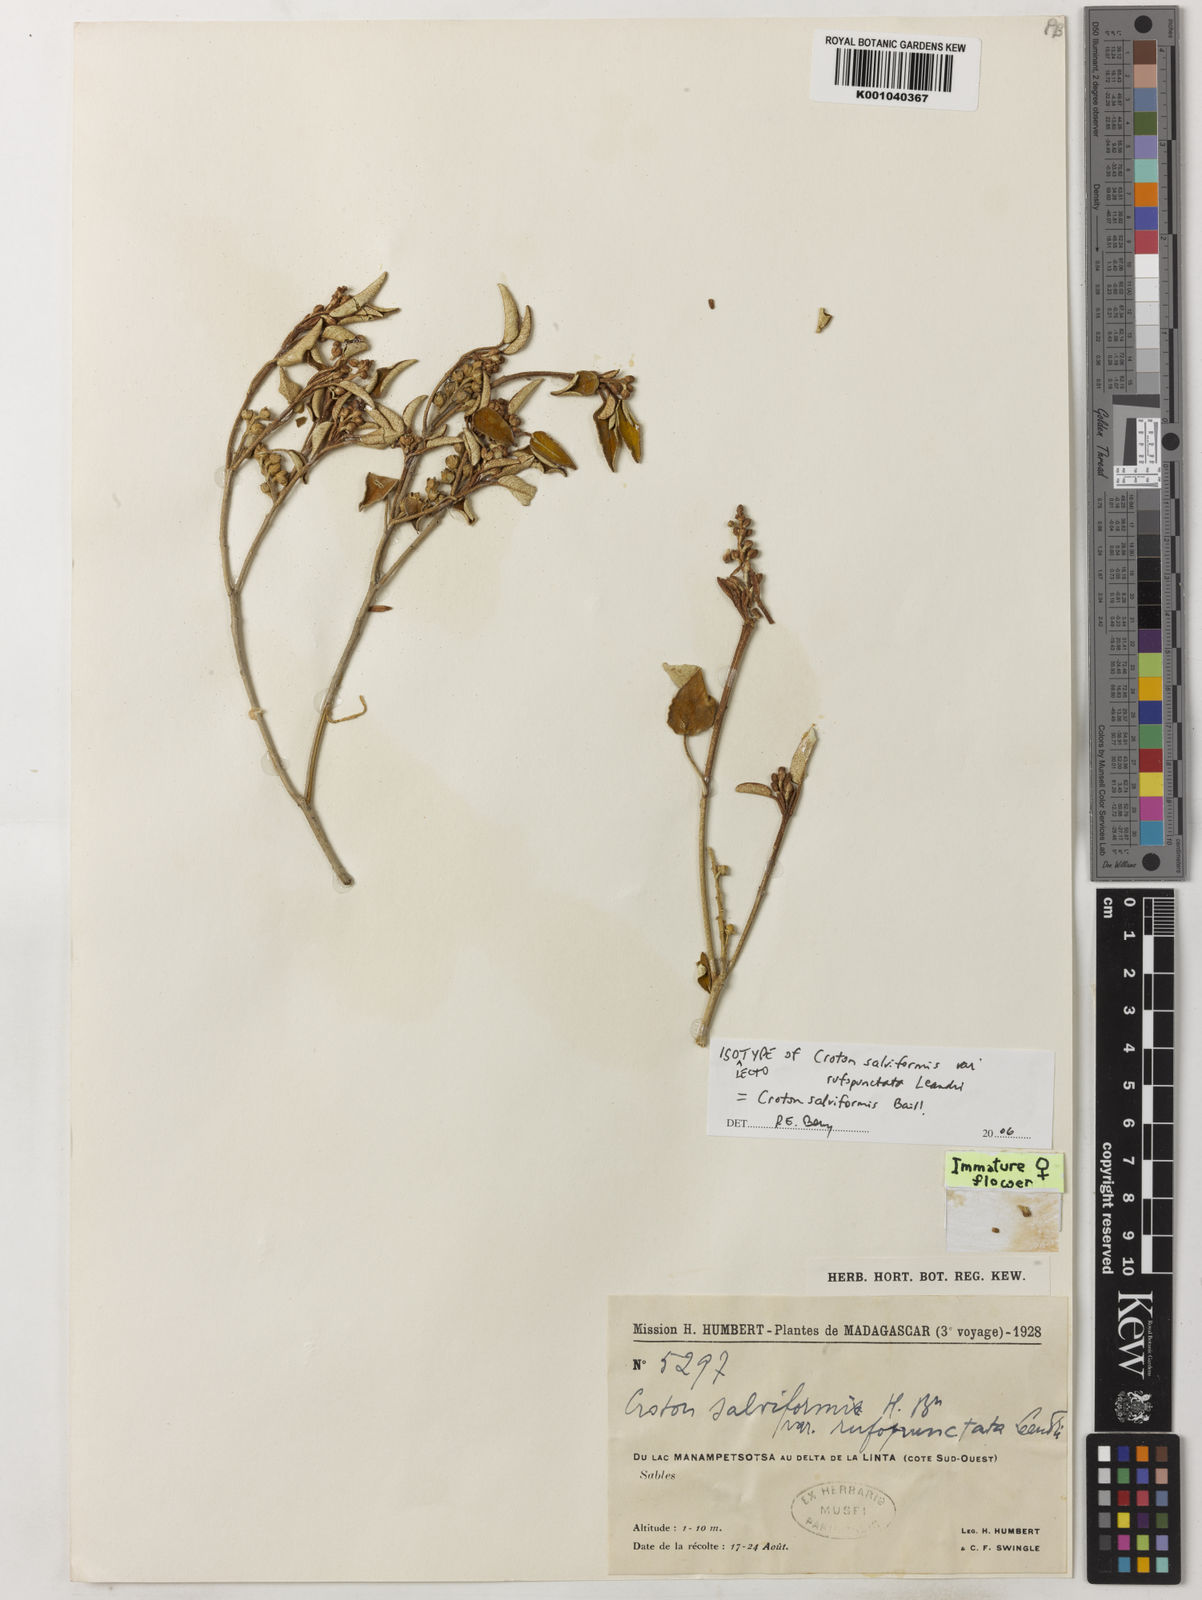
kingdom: Plantae
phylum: Tracheophyta
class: Magnoliopsida
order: Malpighiales
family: Euphorbiaceae
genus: Croton
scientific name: Croton salviformis
